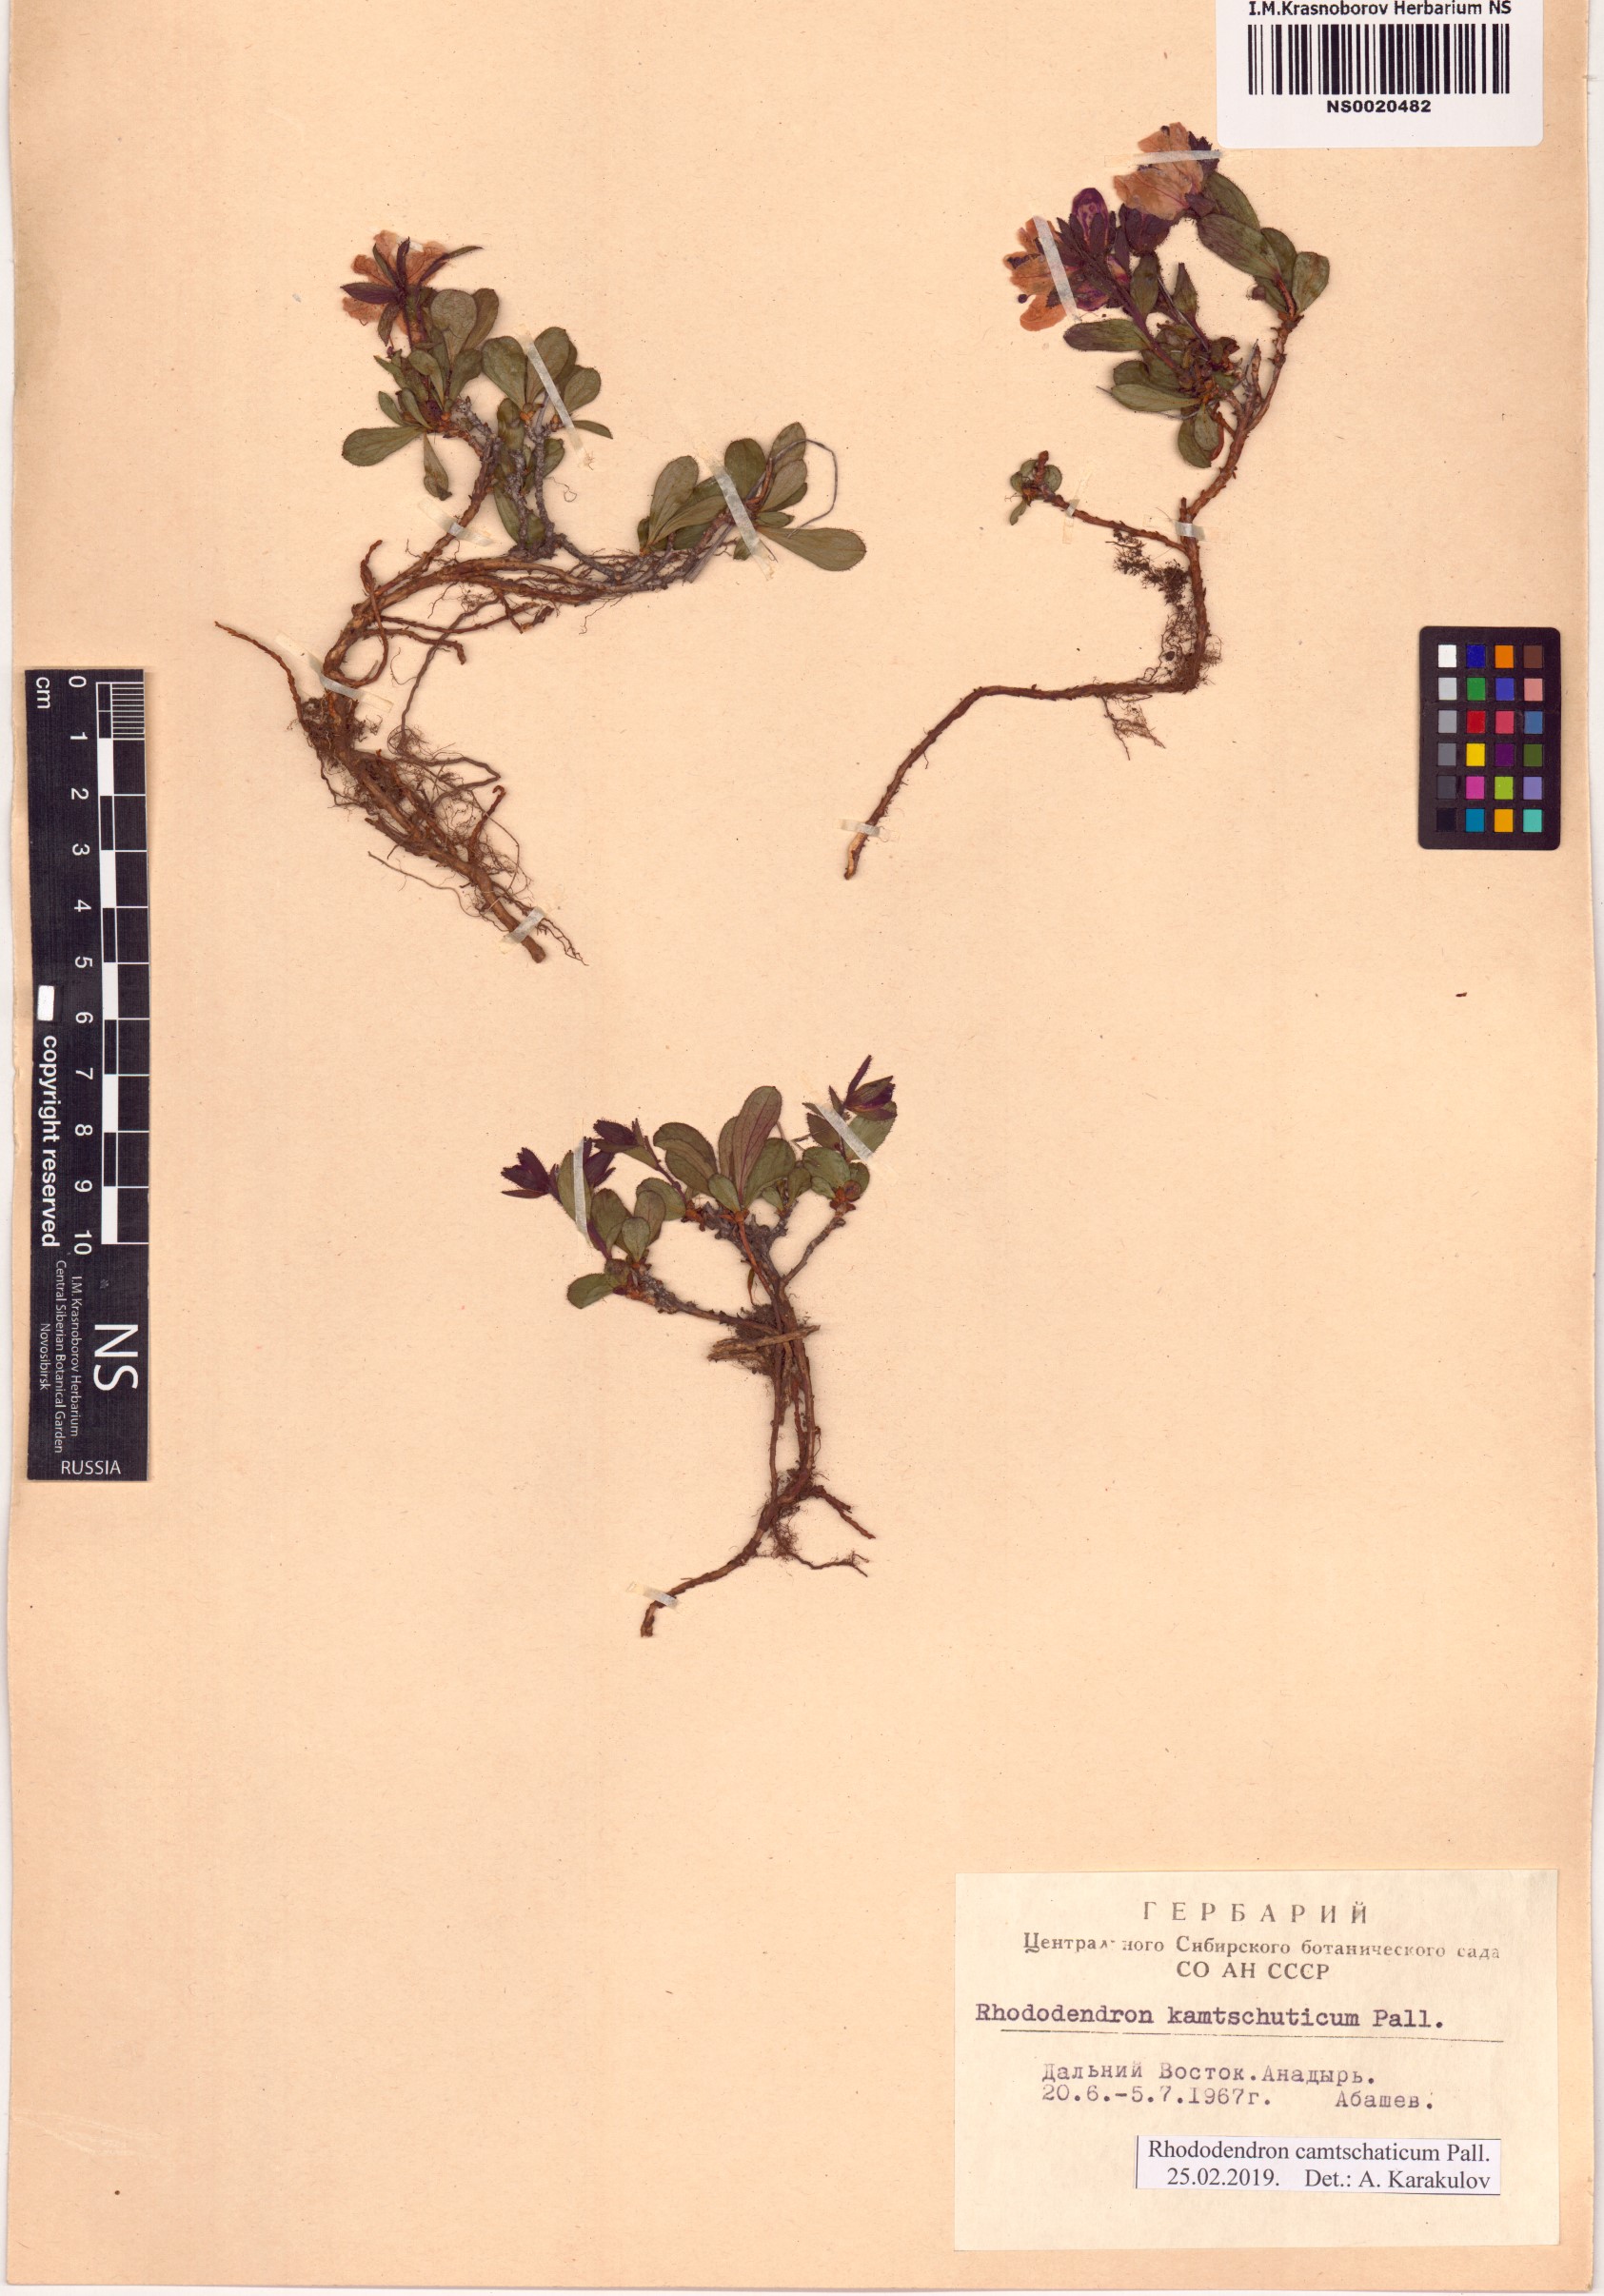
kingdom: Plantae
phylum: Tracheophyta
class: Magnoliopsida
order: Ericales
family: Ericaceae
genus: Rhododendron
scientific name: Rhododendron camtschaticum
